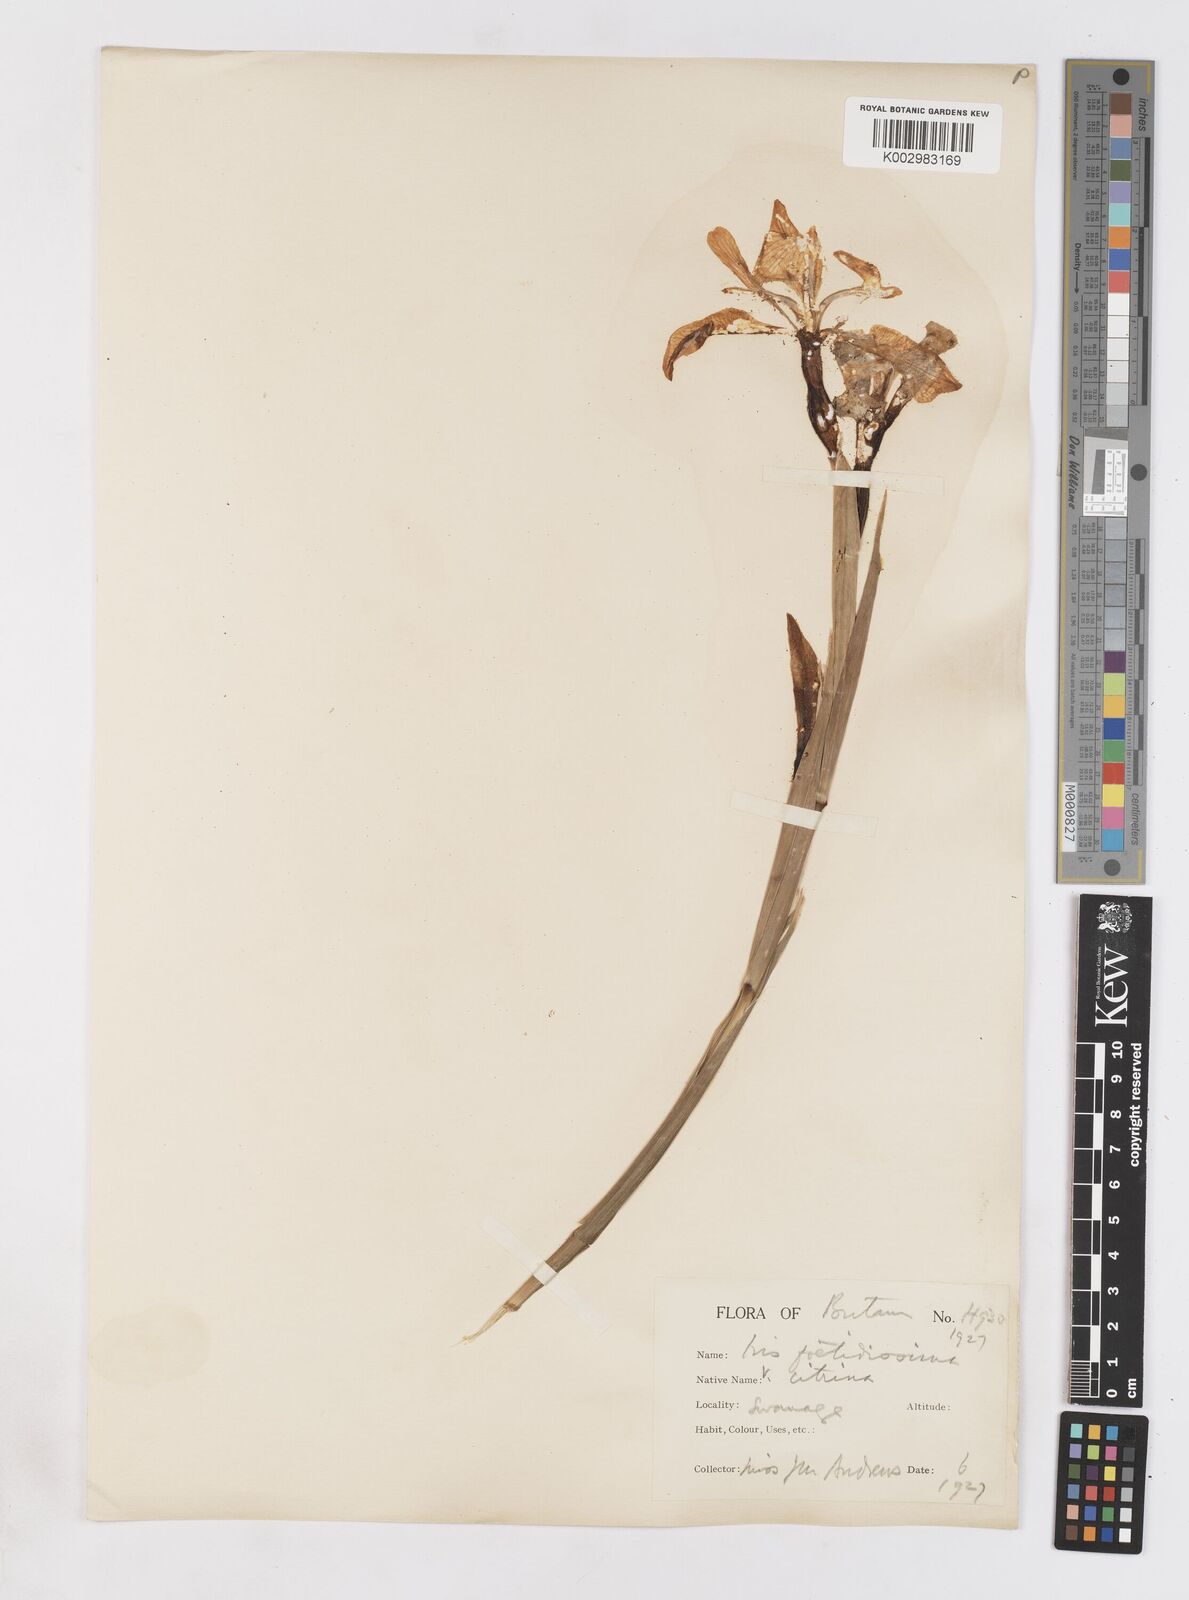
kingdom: Plantae
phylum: Tracheophyta
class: Liliopsida
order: Asparagales
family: Iridaceae
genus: Iris
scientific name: Iris foetidissima
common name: Stinking iris
